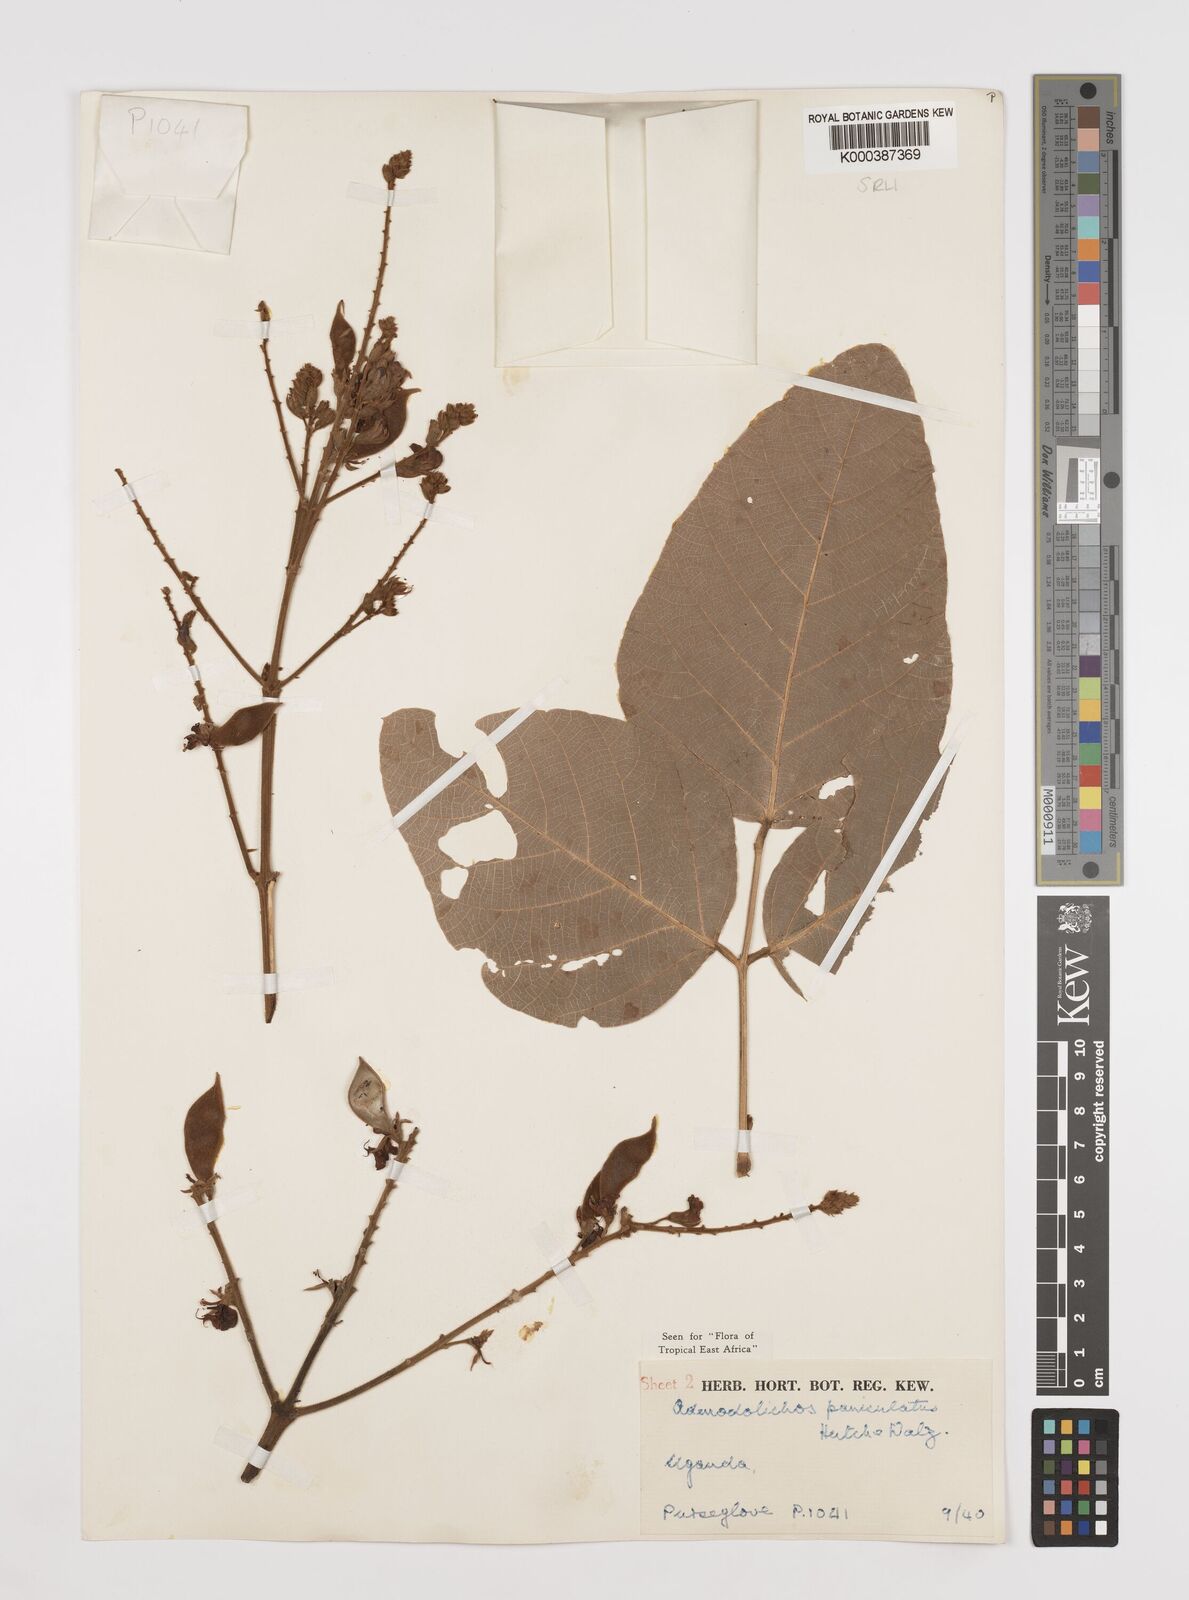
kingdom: Plantae
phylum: Tracheophyta
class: Magnoliopsida
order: Fabales
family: Fabaceae
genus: Adenodolichos
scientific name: Adenodolichos kaessneri
